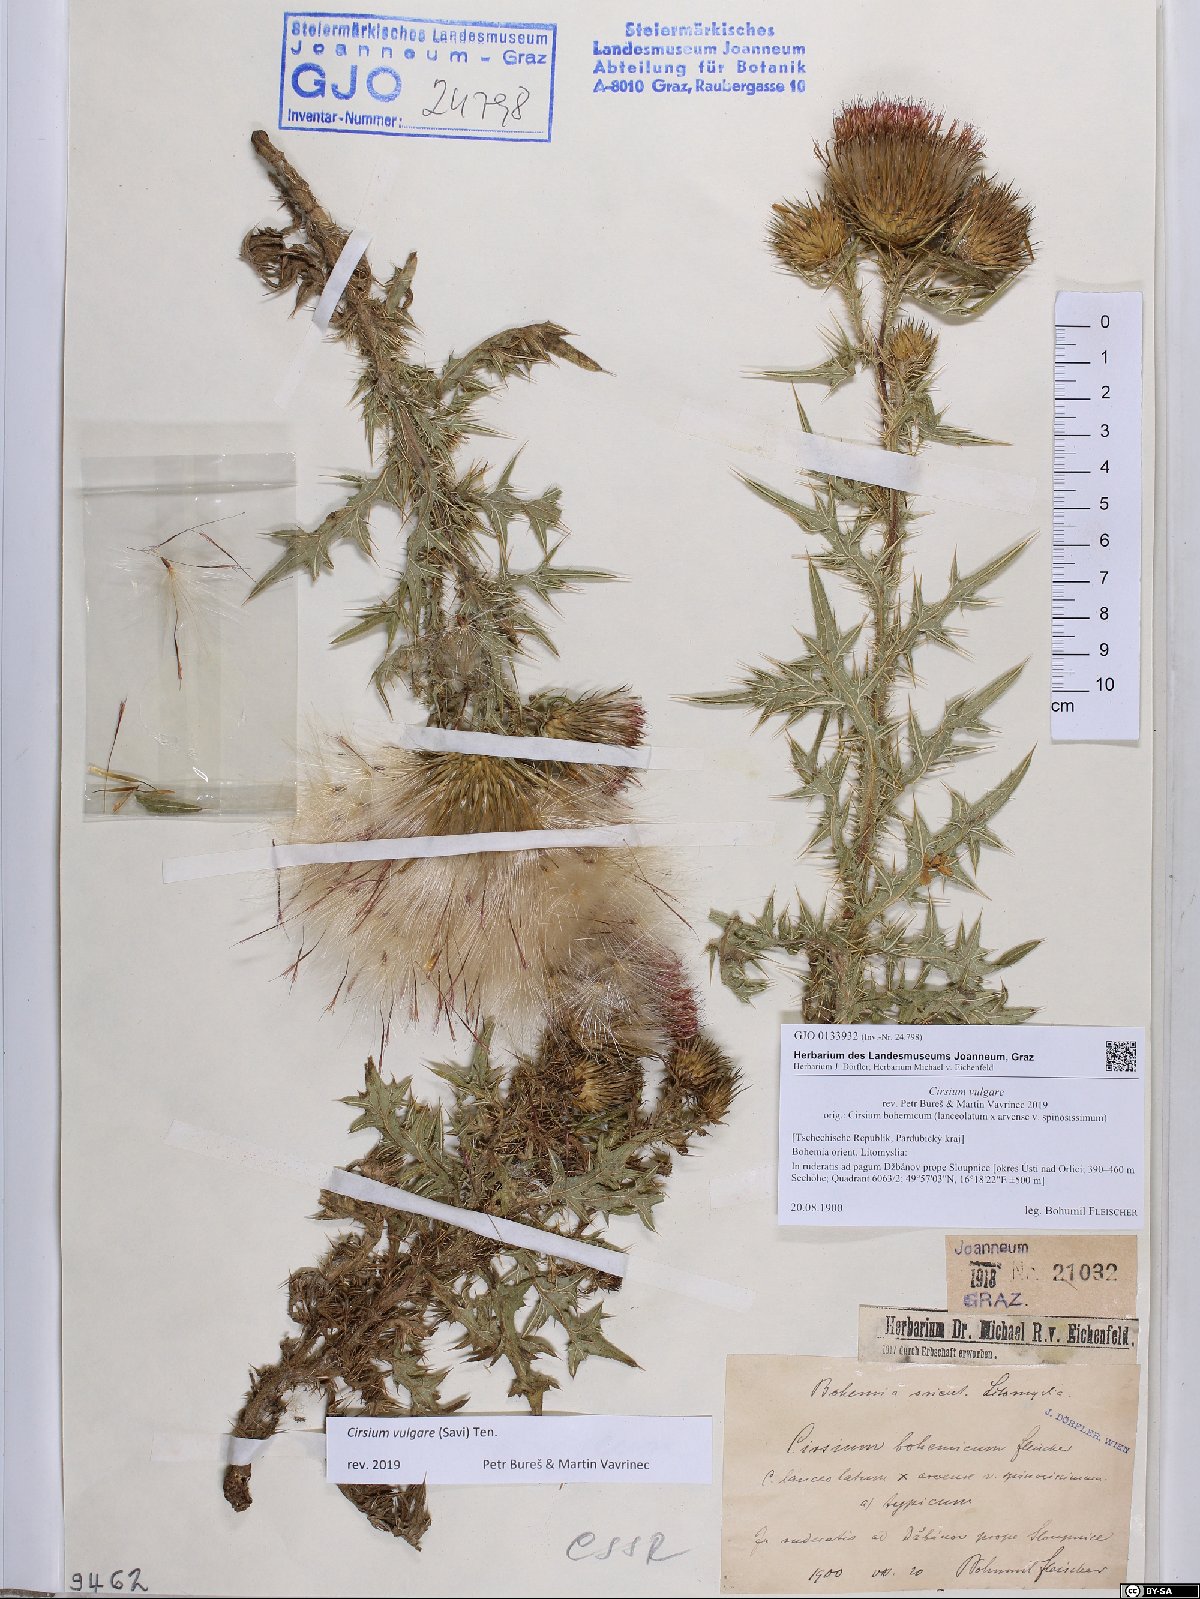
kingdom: Plantae
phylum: Tracheophyta
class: Magnoliopsida
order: Asterales
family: Asteraceae
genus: Cirsium
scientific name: Cirsium vulgare
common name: Bull thistle
